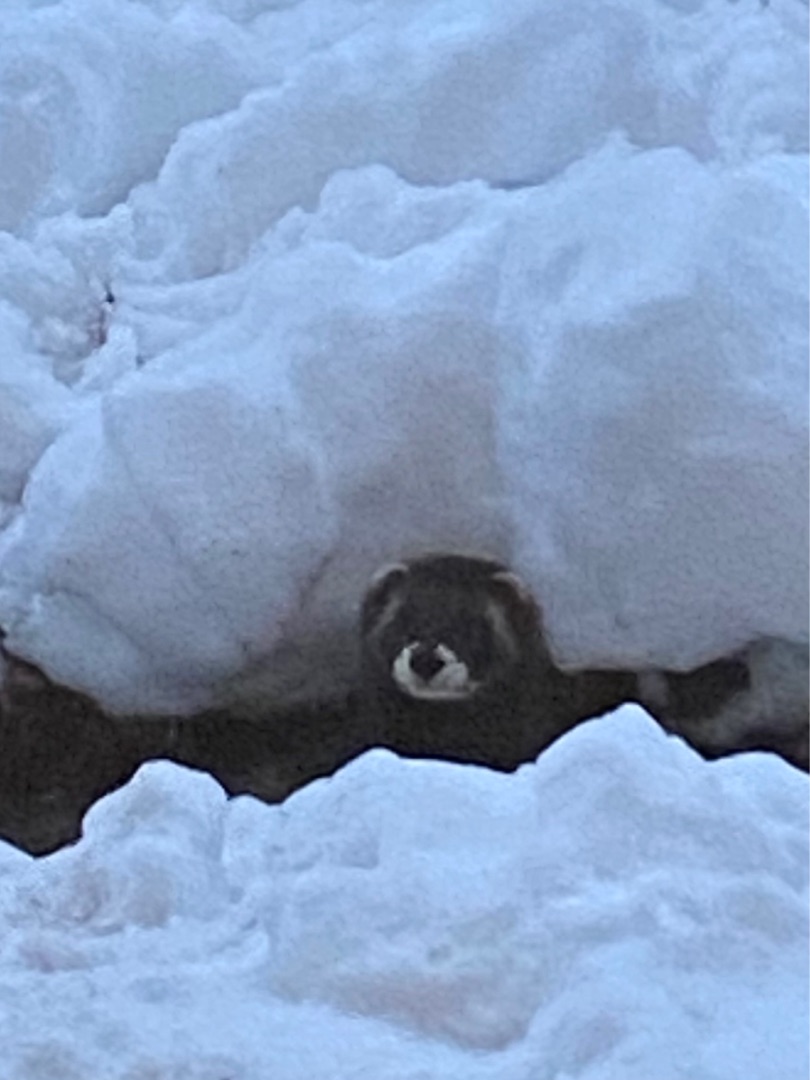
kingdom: Animalia
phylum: Chordata
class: Mammalia
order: Carnivora
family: Mustelidae
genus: Mustela
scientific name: Mustela putorius
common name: Ilder
